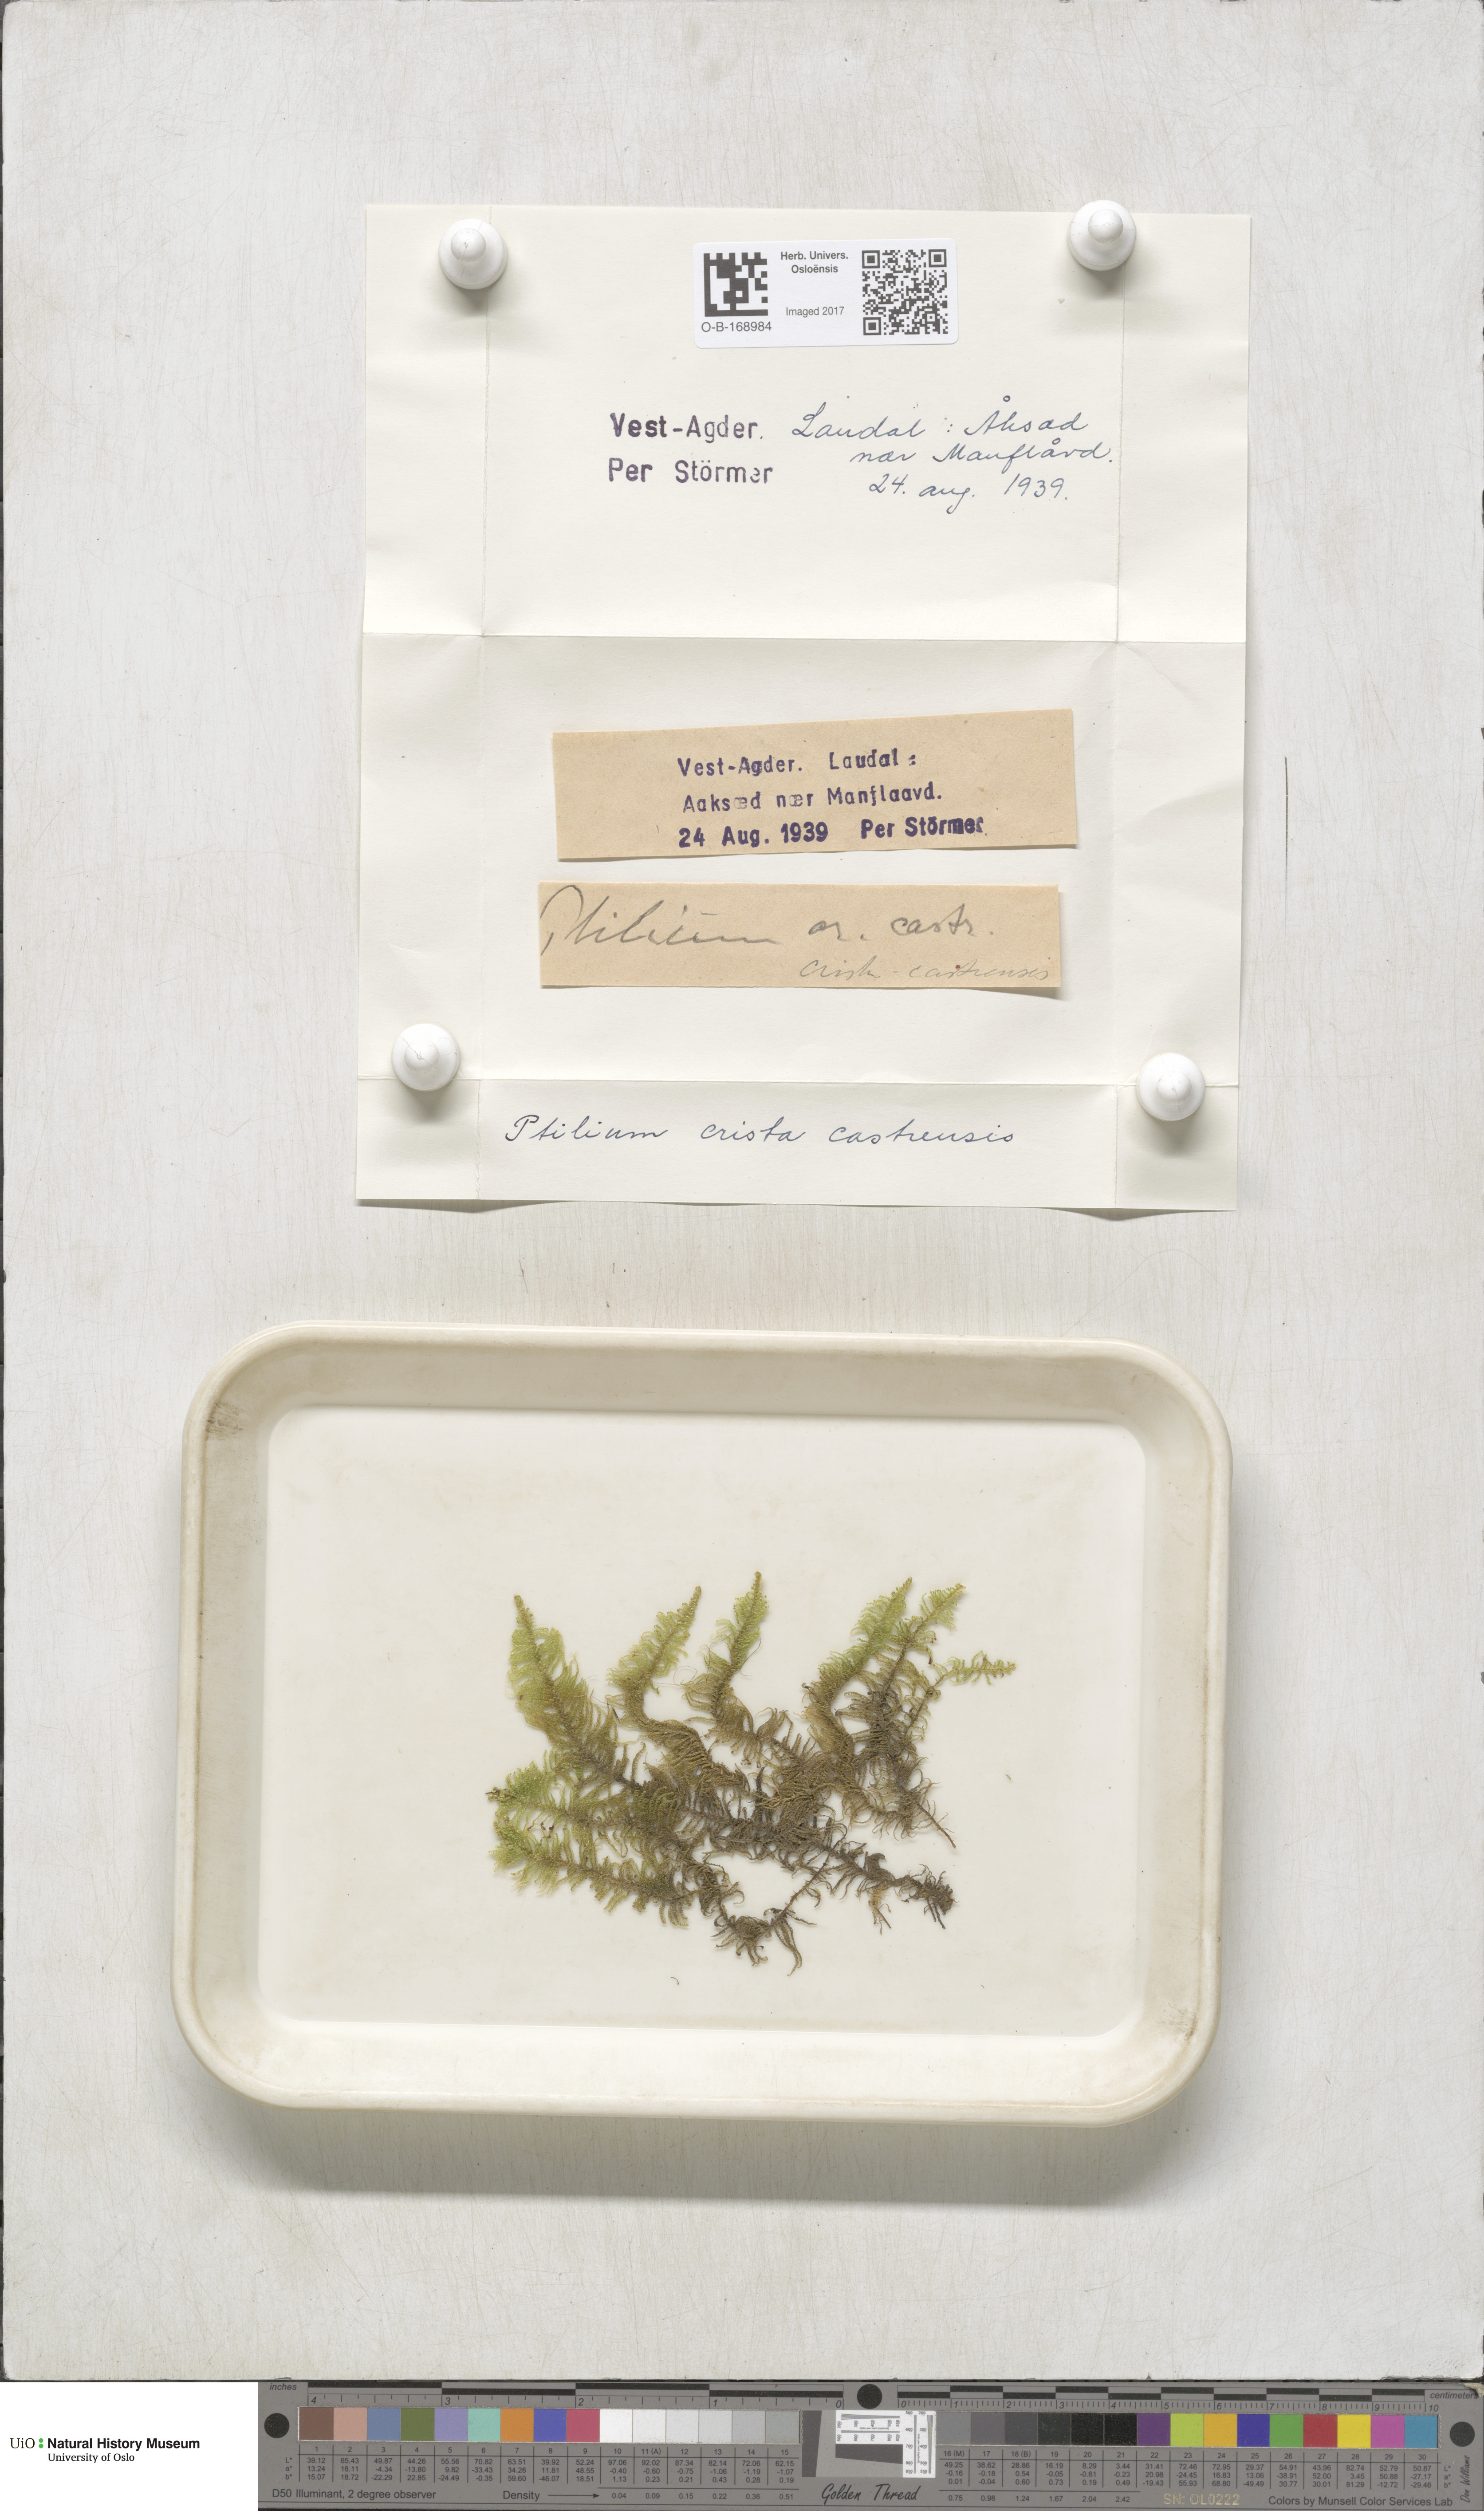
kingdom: Plantae
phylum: Bryophyta
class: Bryopsida
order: Hypnales
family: Pylaisiaceae
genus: Ptilium
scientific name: Ptilium crista-castrensis
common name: Knight's plume moss
